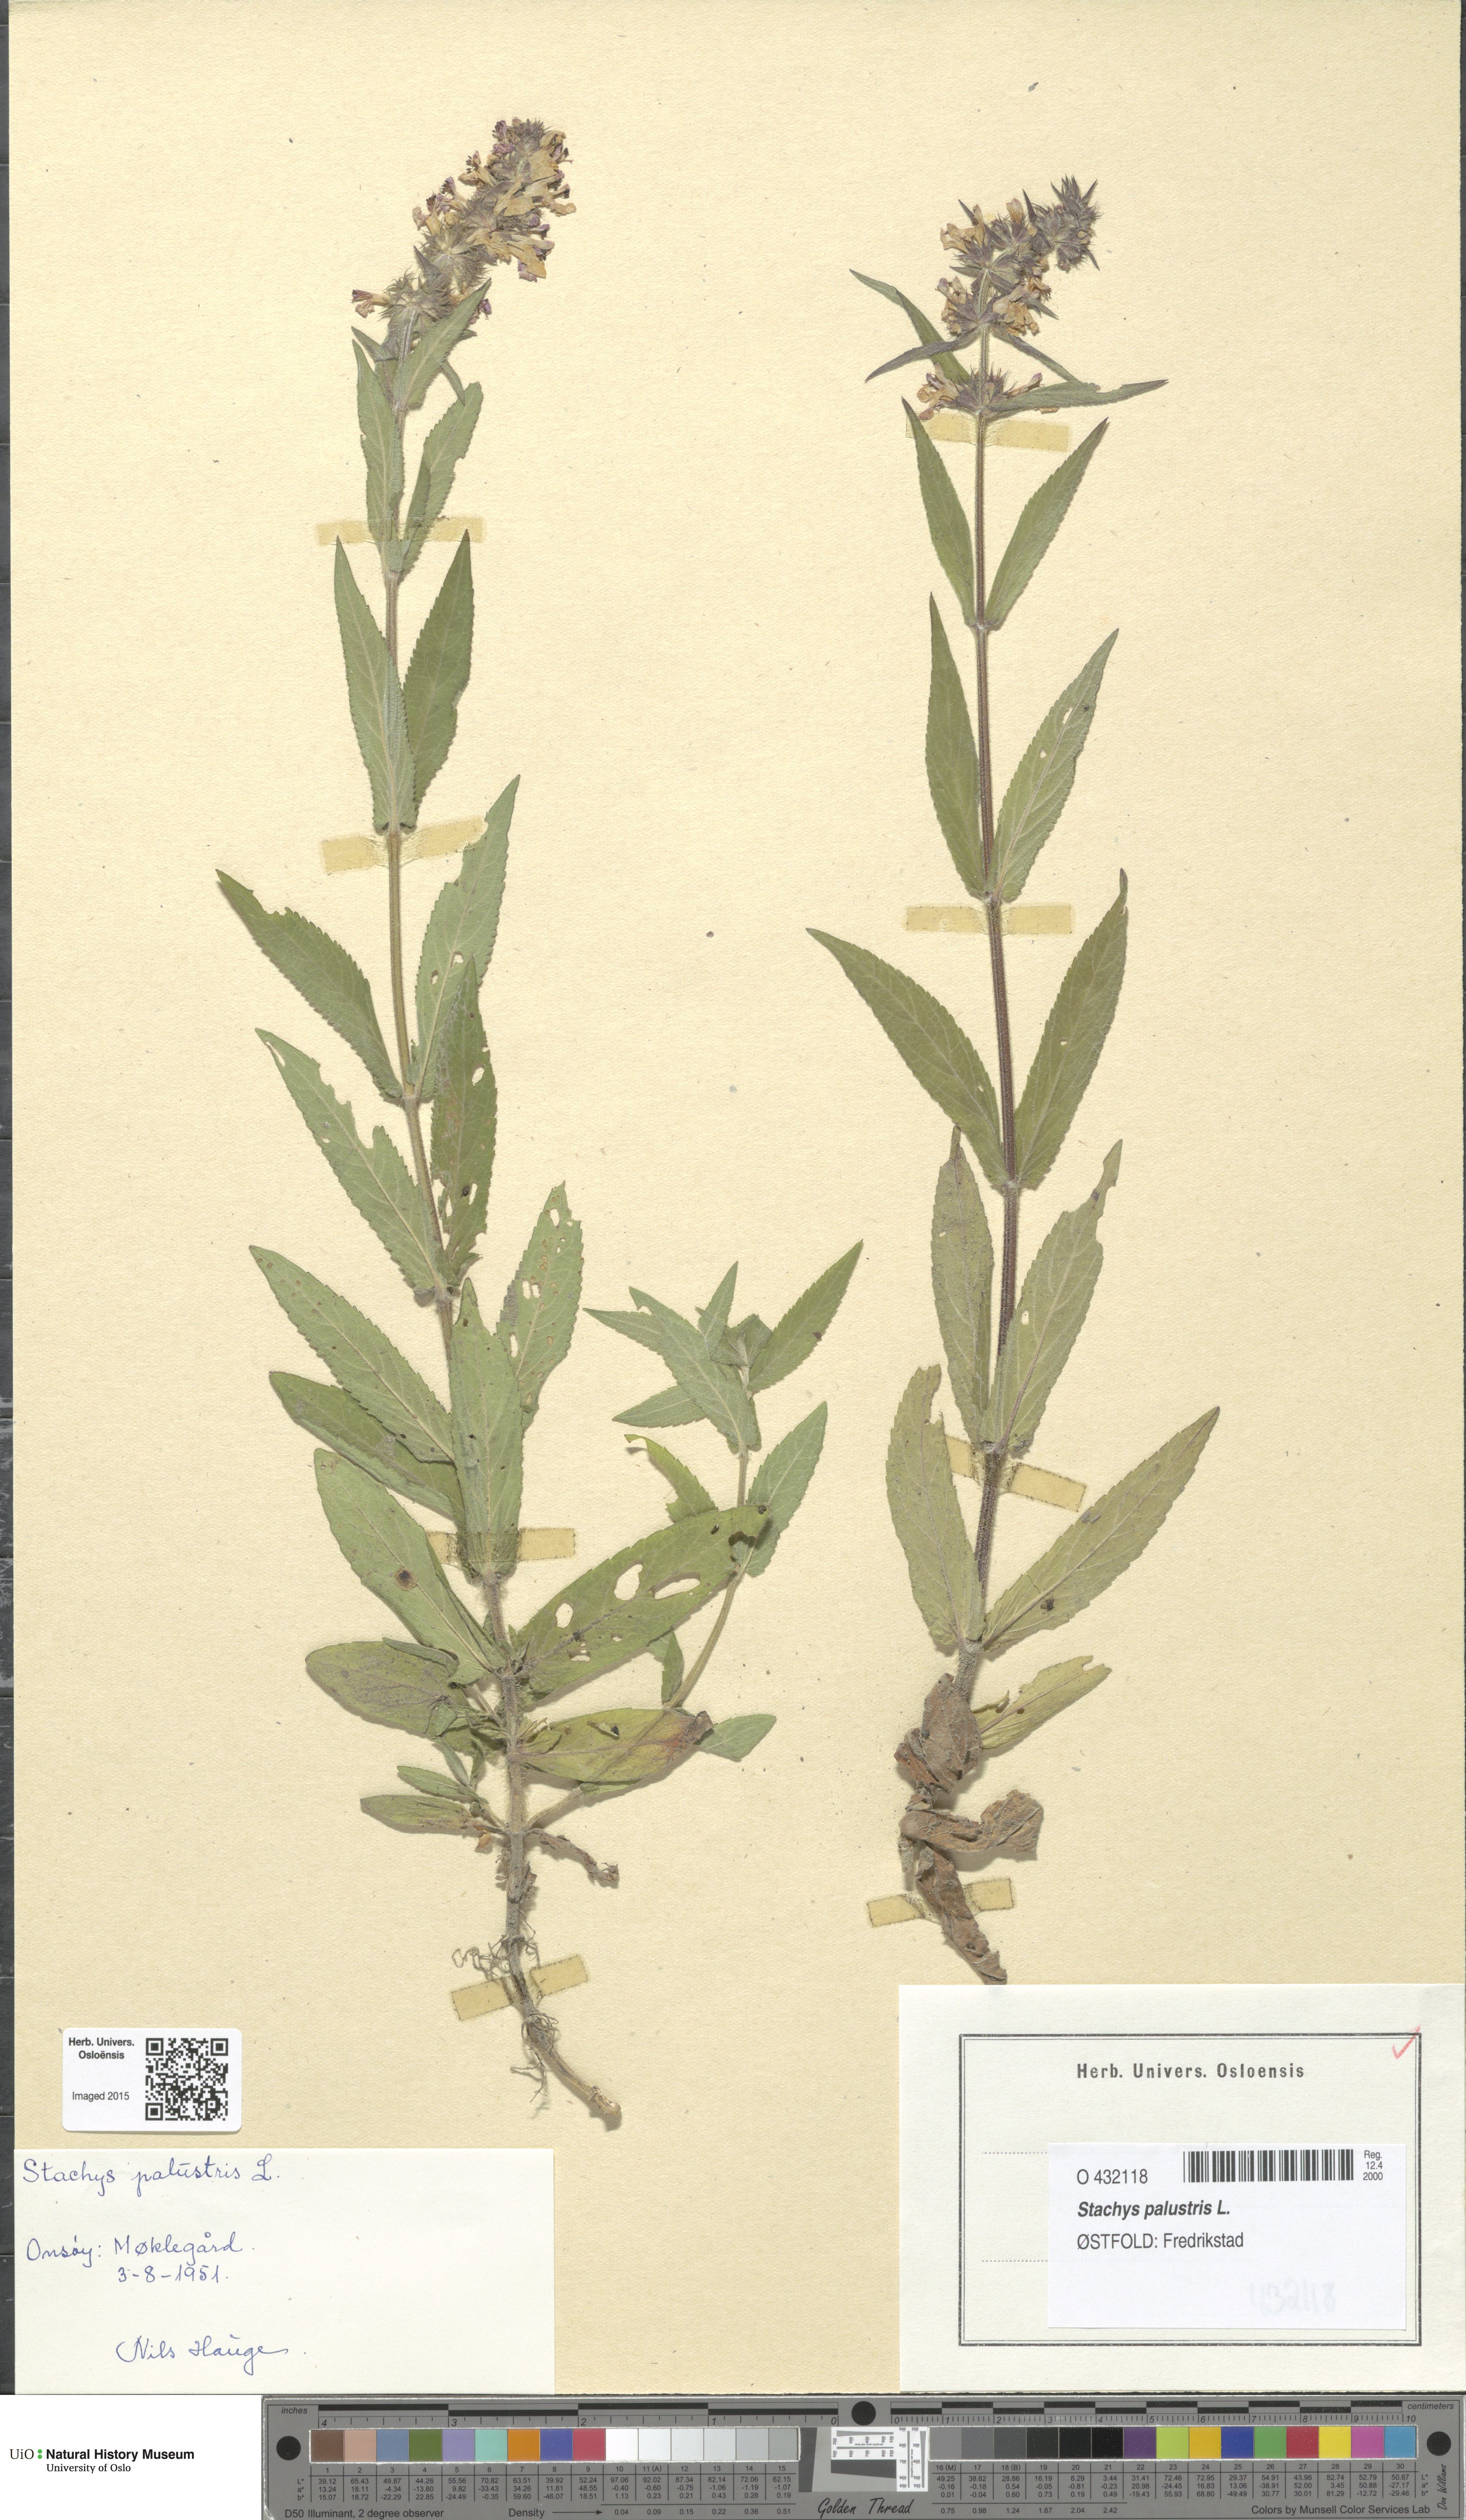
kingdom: Plantae
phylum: Tracheophyta
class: Magnoliopsida
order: Lamiales
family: Lamiaceae
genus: Stachys
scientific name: Stachys palustris
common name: Marsh woundwort
